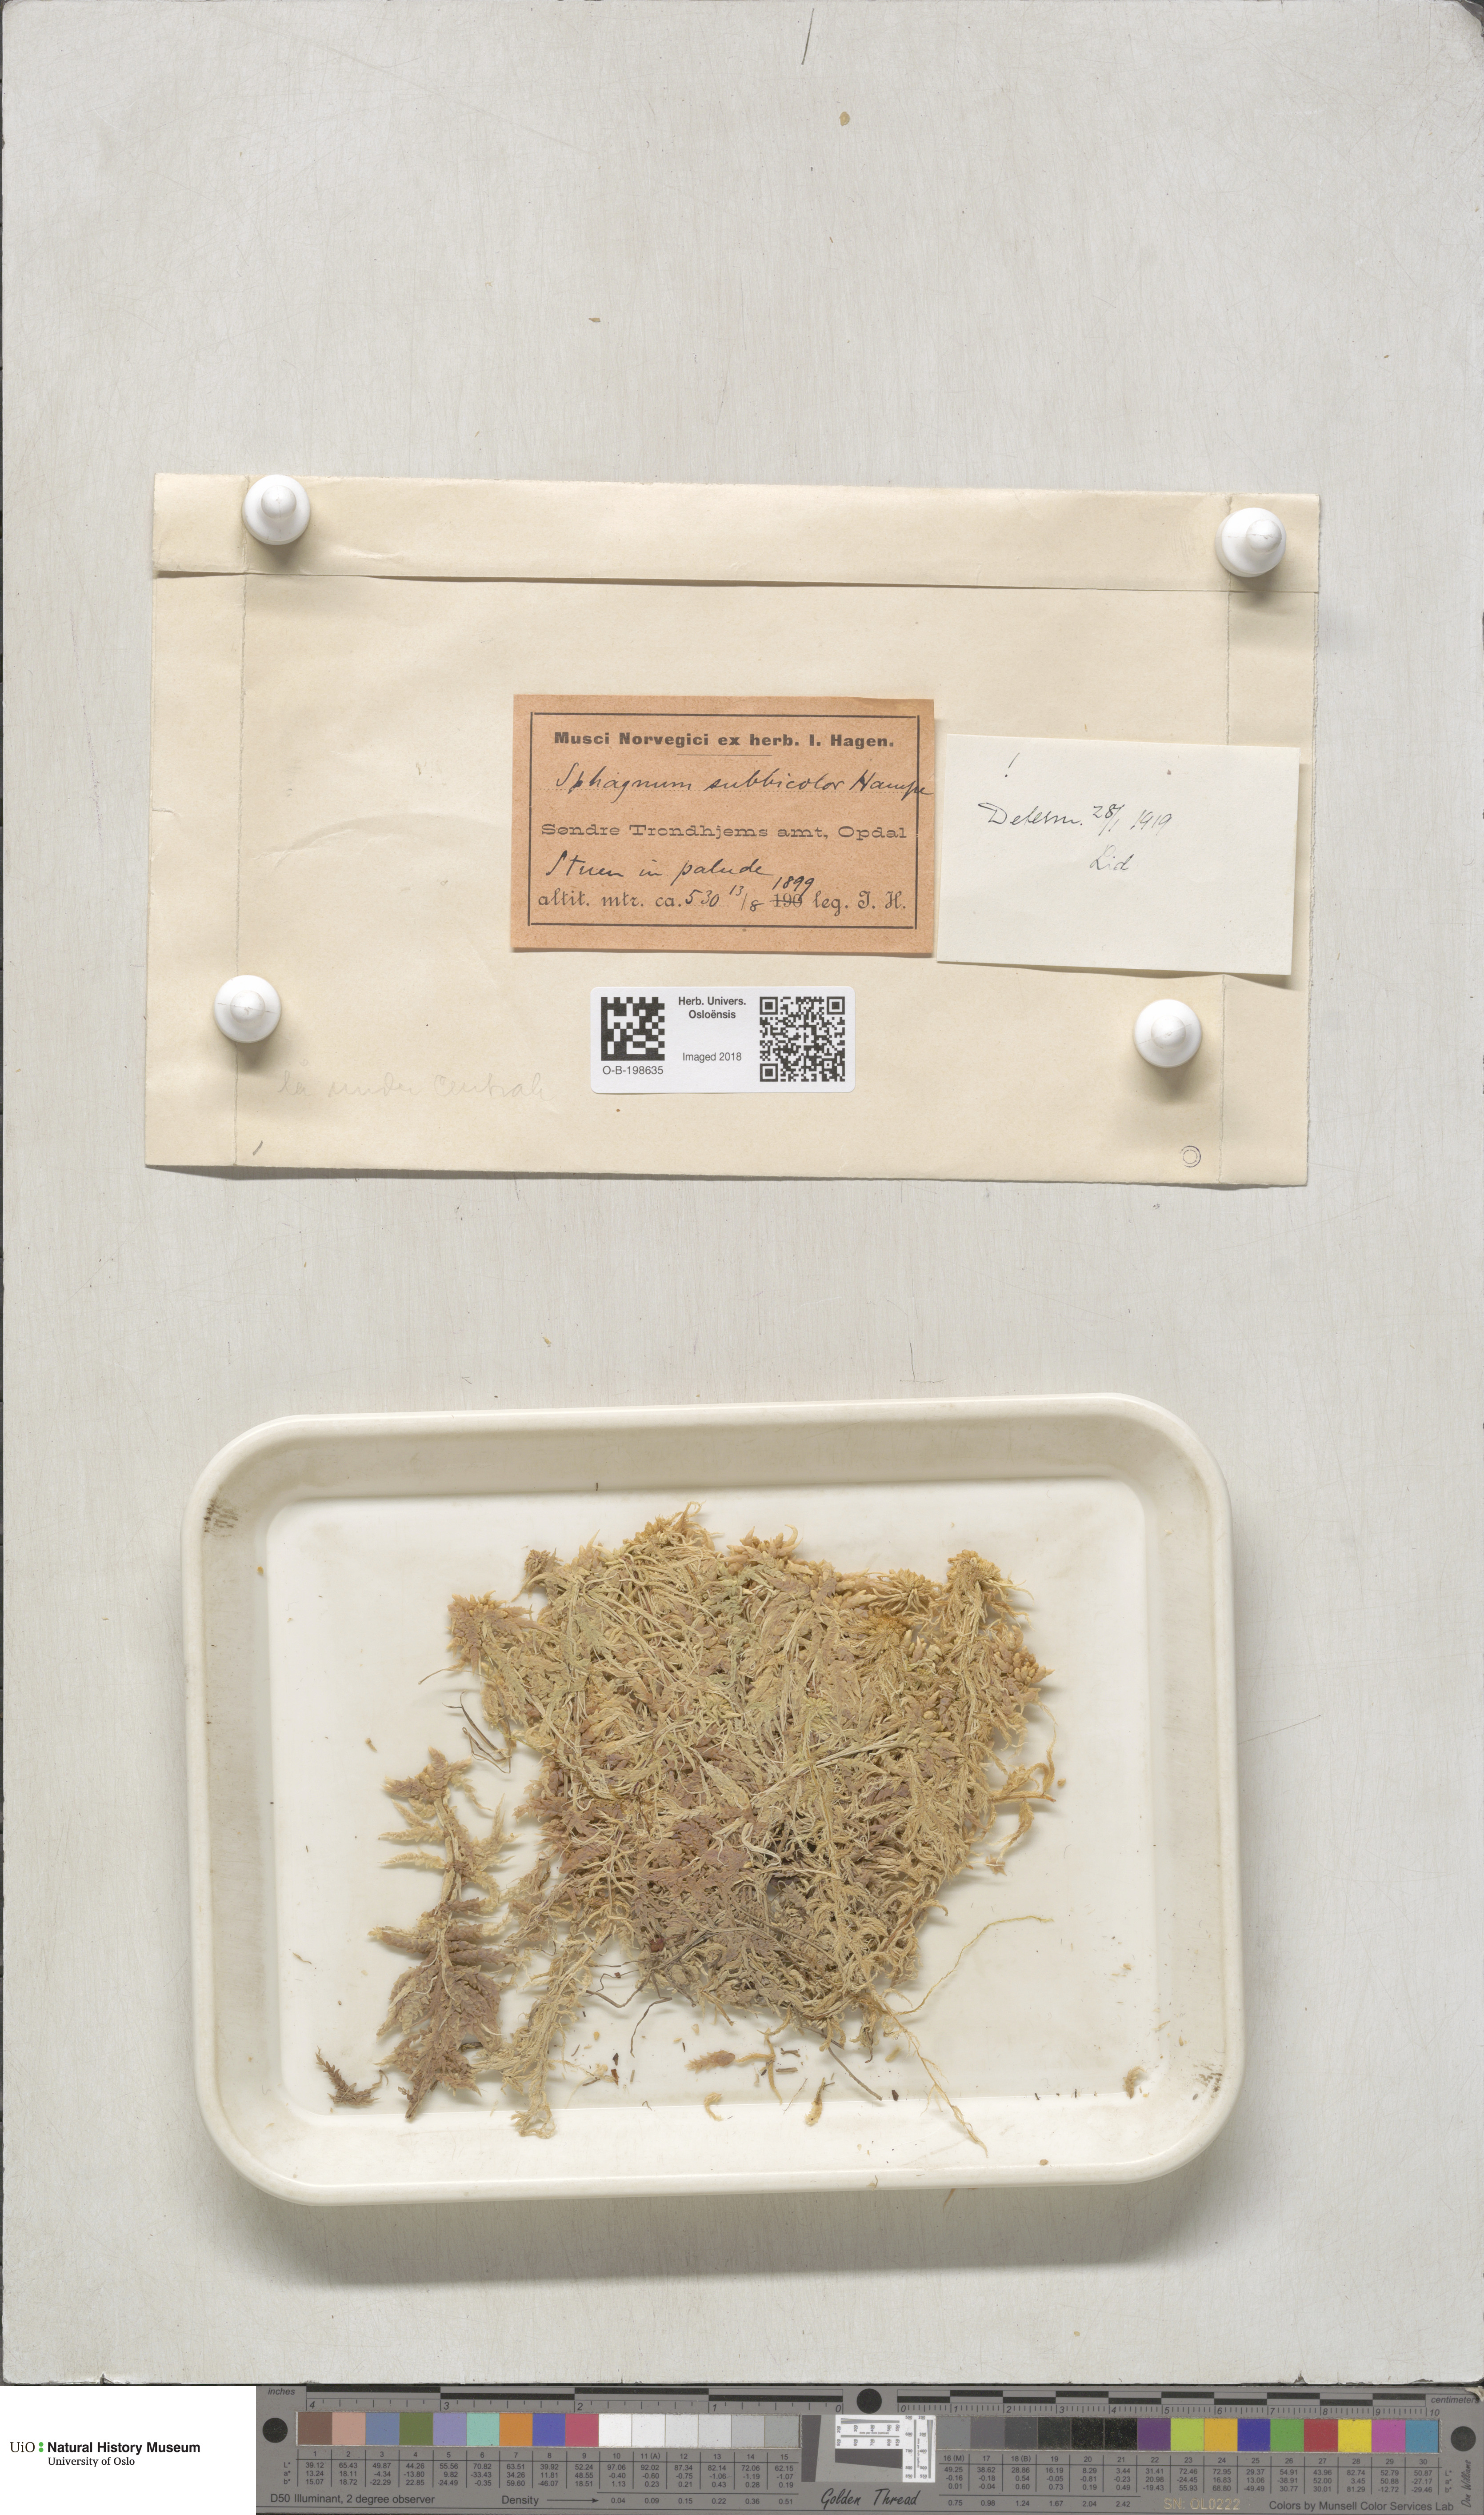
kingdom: Plantae
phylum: Bryophyta
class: Sphagnopsida
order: Sphagnales
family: Sphagnaceae
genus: Sphagnum
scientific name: Sphagnum centrale
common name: Central peat moss
